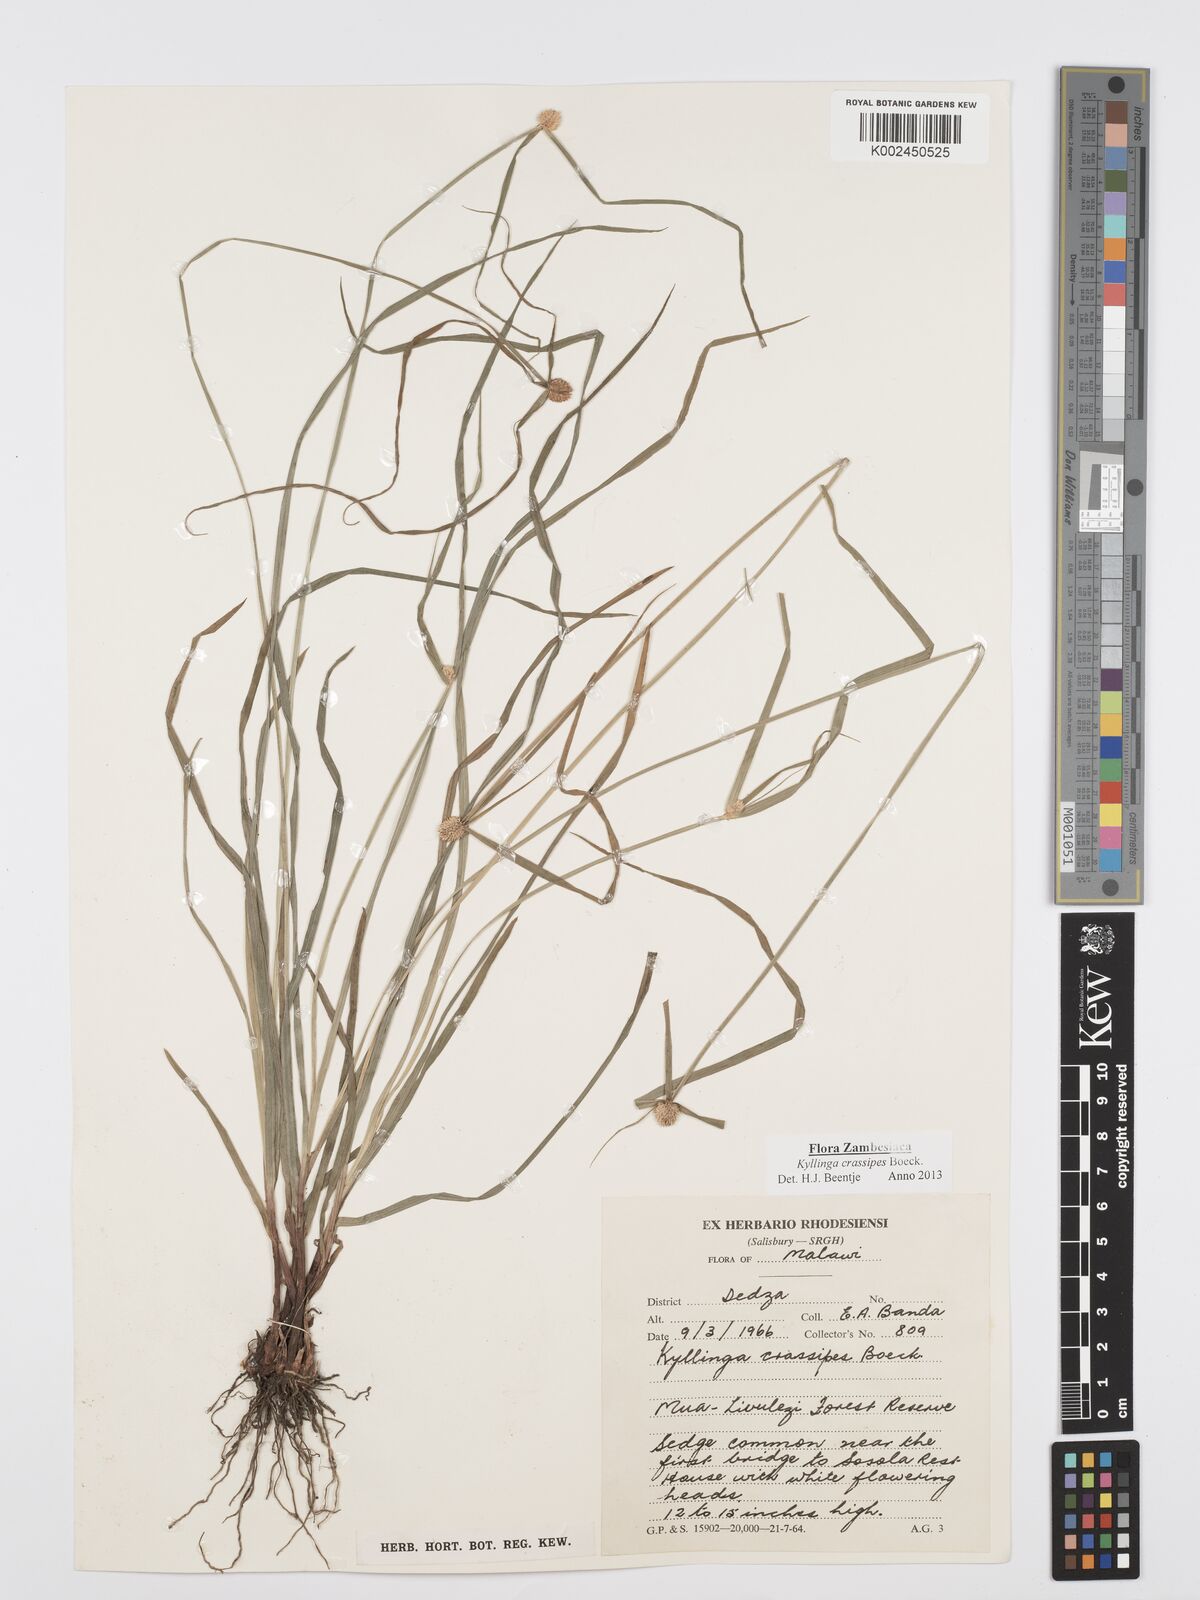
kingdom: Plantae
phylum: Tracheophyta
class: Liliopsida
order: Poales
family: Cyperaceae
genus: Cyperus
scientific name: Cyperus crassipes
